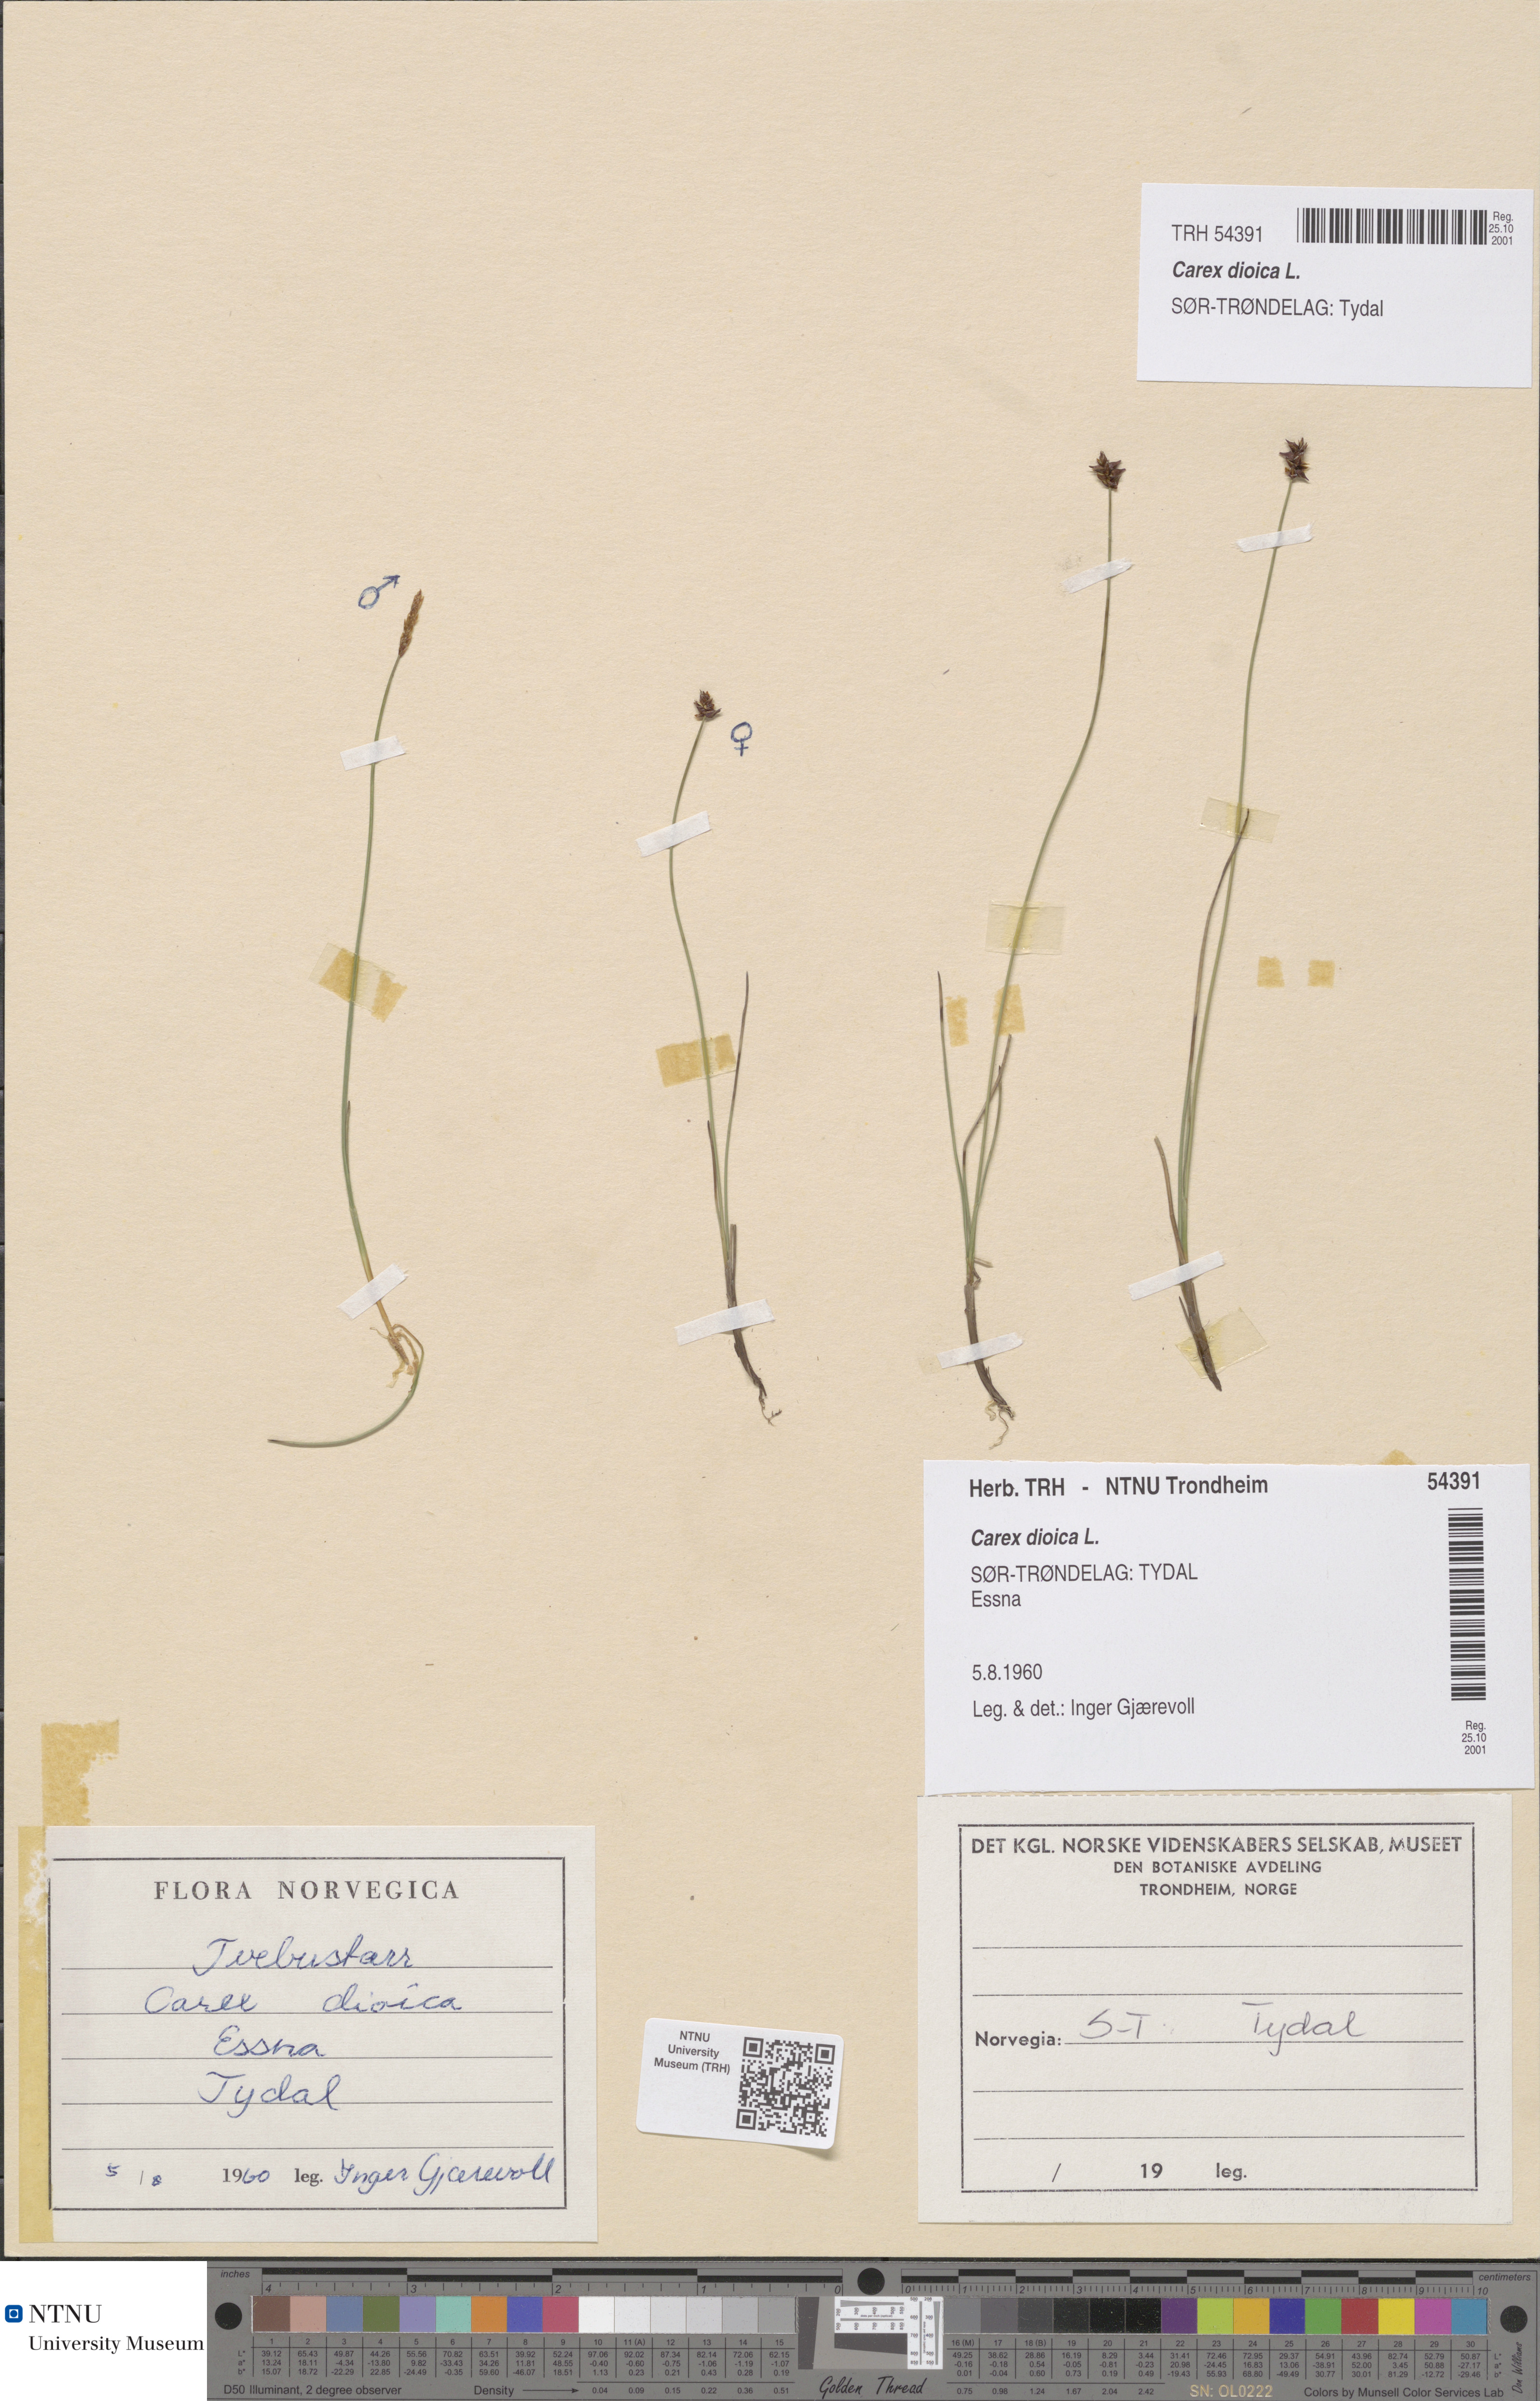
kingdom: Plantae
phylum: Tracheophyta
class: Liliopsida
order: Poales
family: Cyperaceae
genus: Carex
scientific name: Carex dioica
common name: Dioecious sedge
